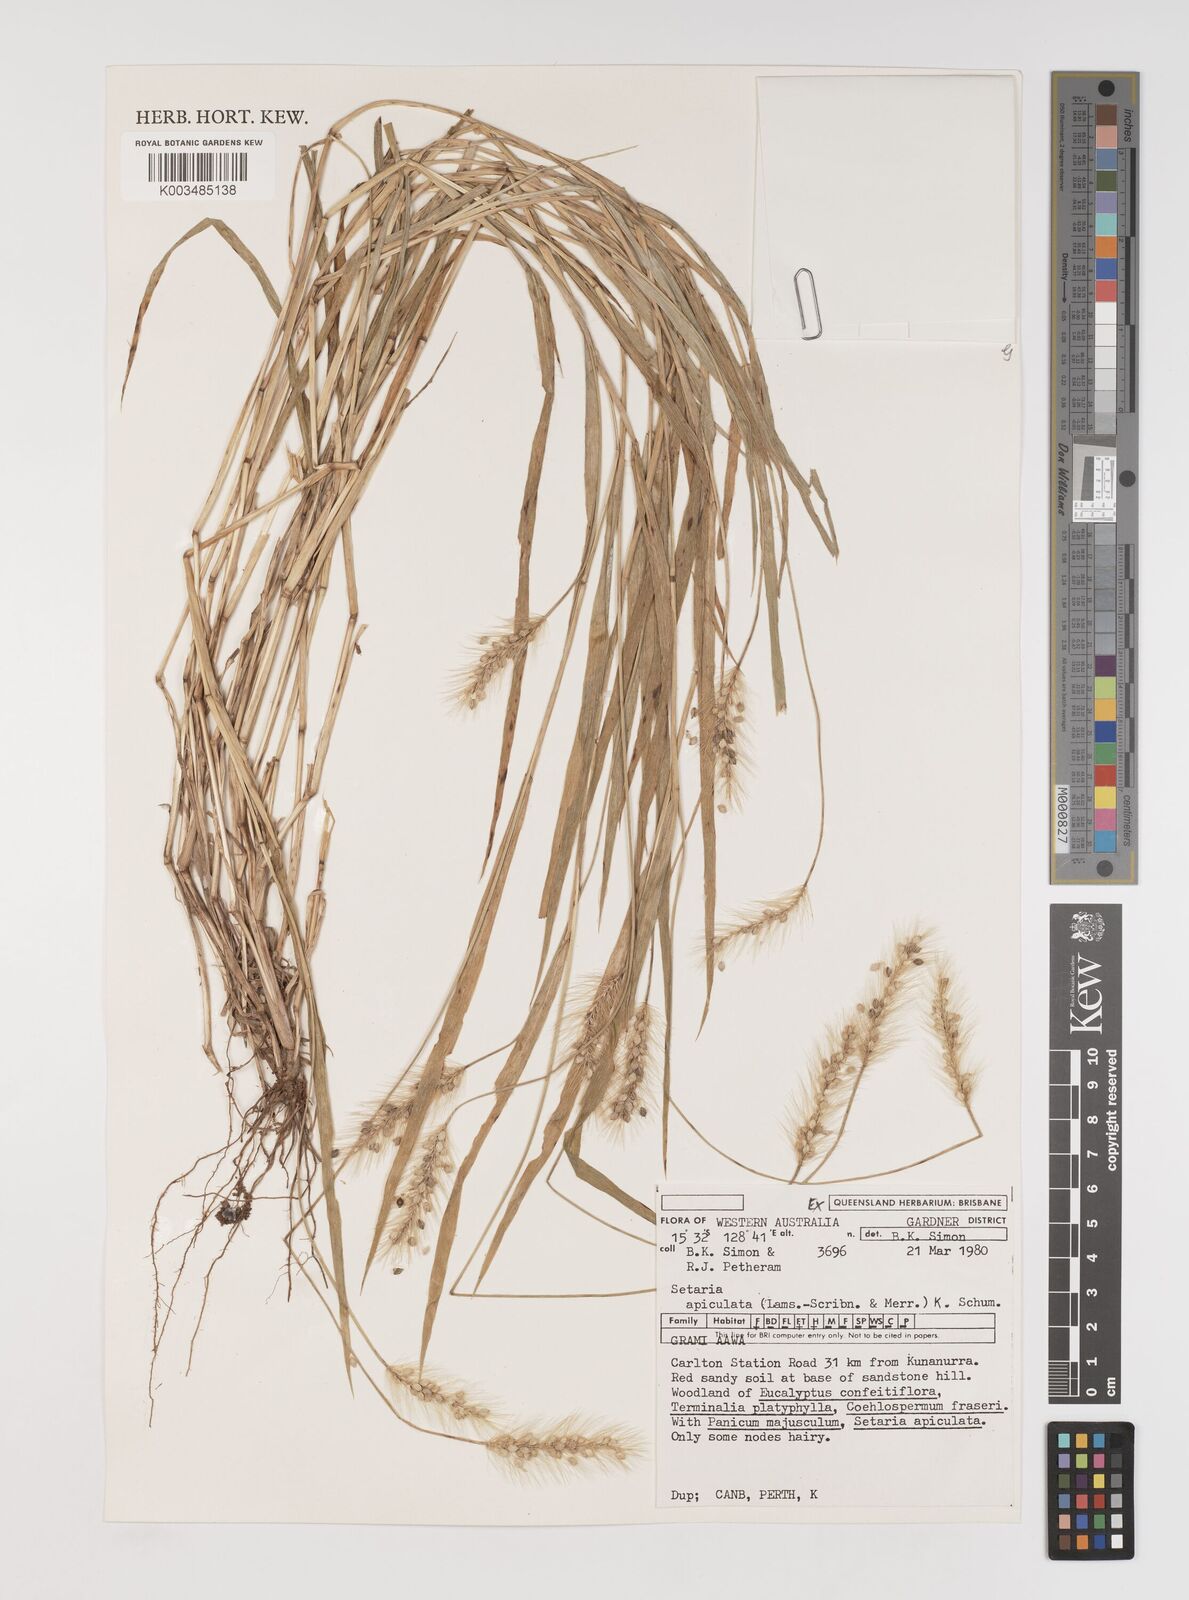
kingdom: Plantae
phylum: Tracheophyta
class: Liliopsida
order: Poales
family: Poaceae
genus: Setaria
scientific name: Setaria apiculata
